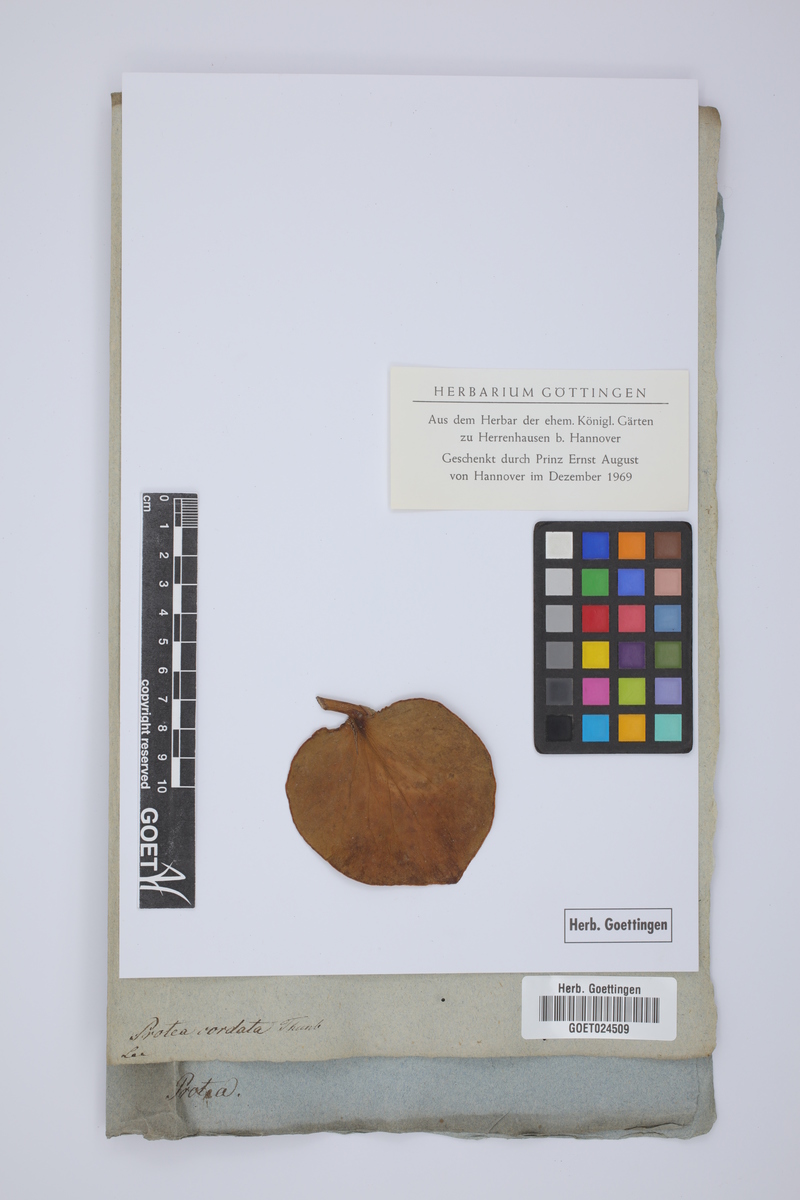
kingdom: Plantae
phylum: Tracheophyta
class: Magnoliopsida
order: Proteales
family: Proteaceae
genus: Protea
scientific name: Protea cordata
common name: Heart-leaf sugarbush
